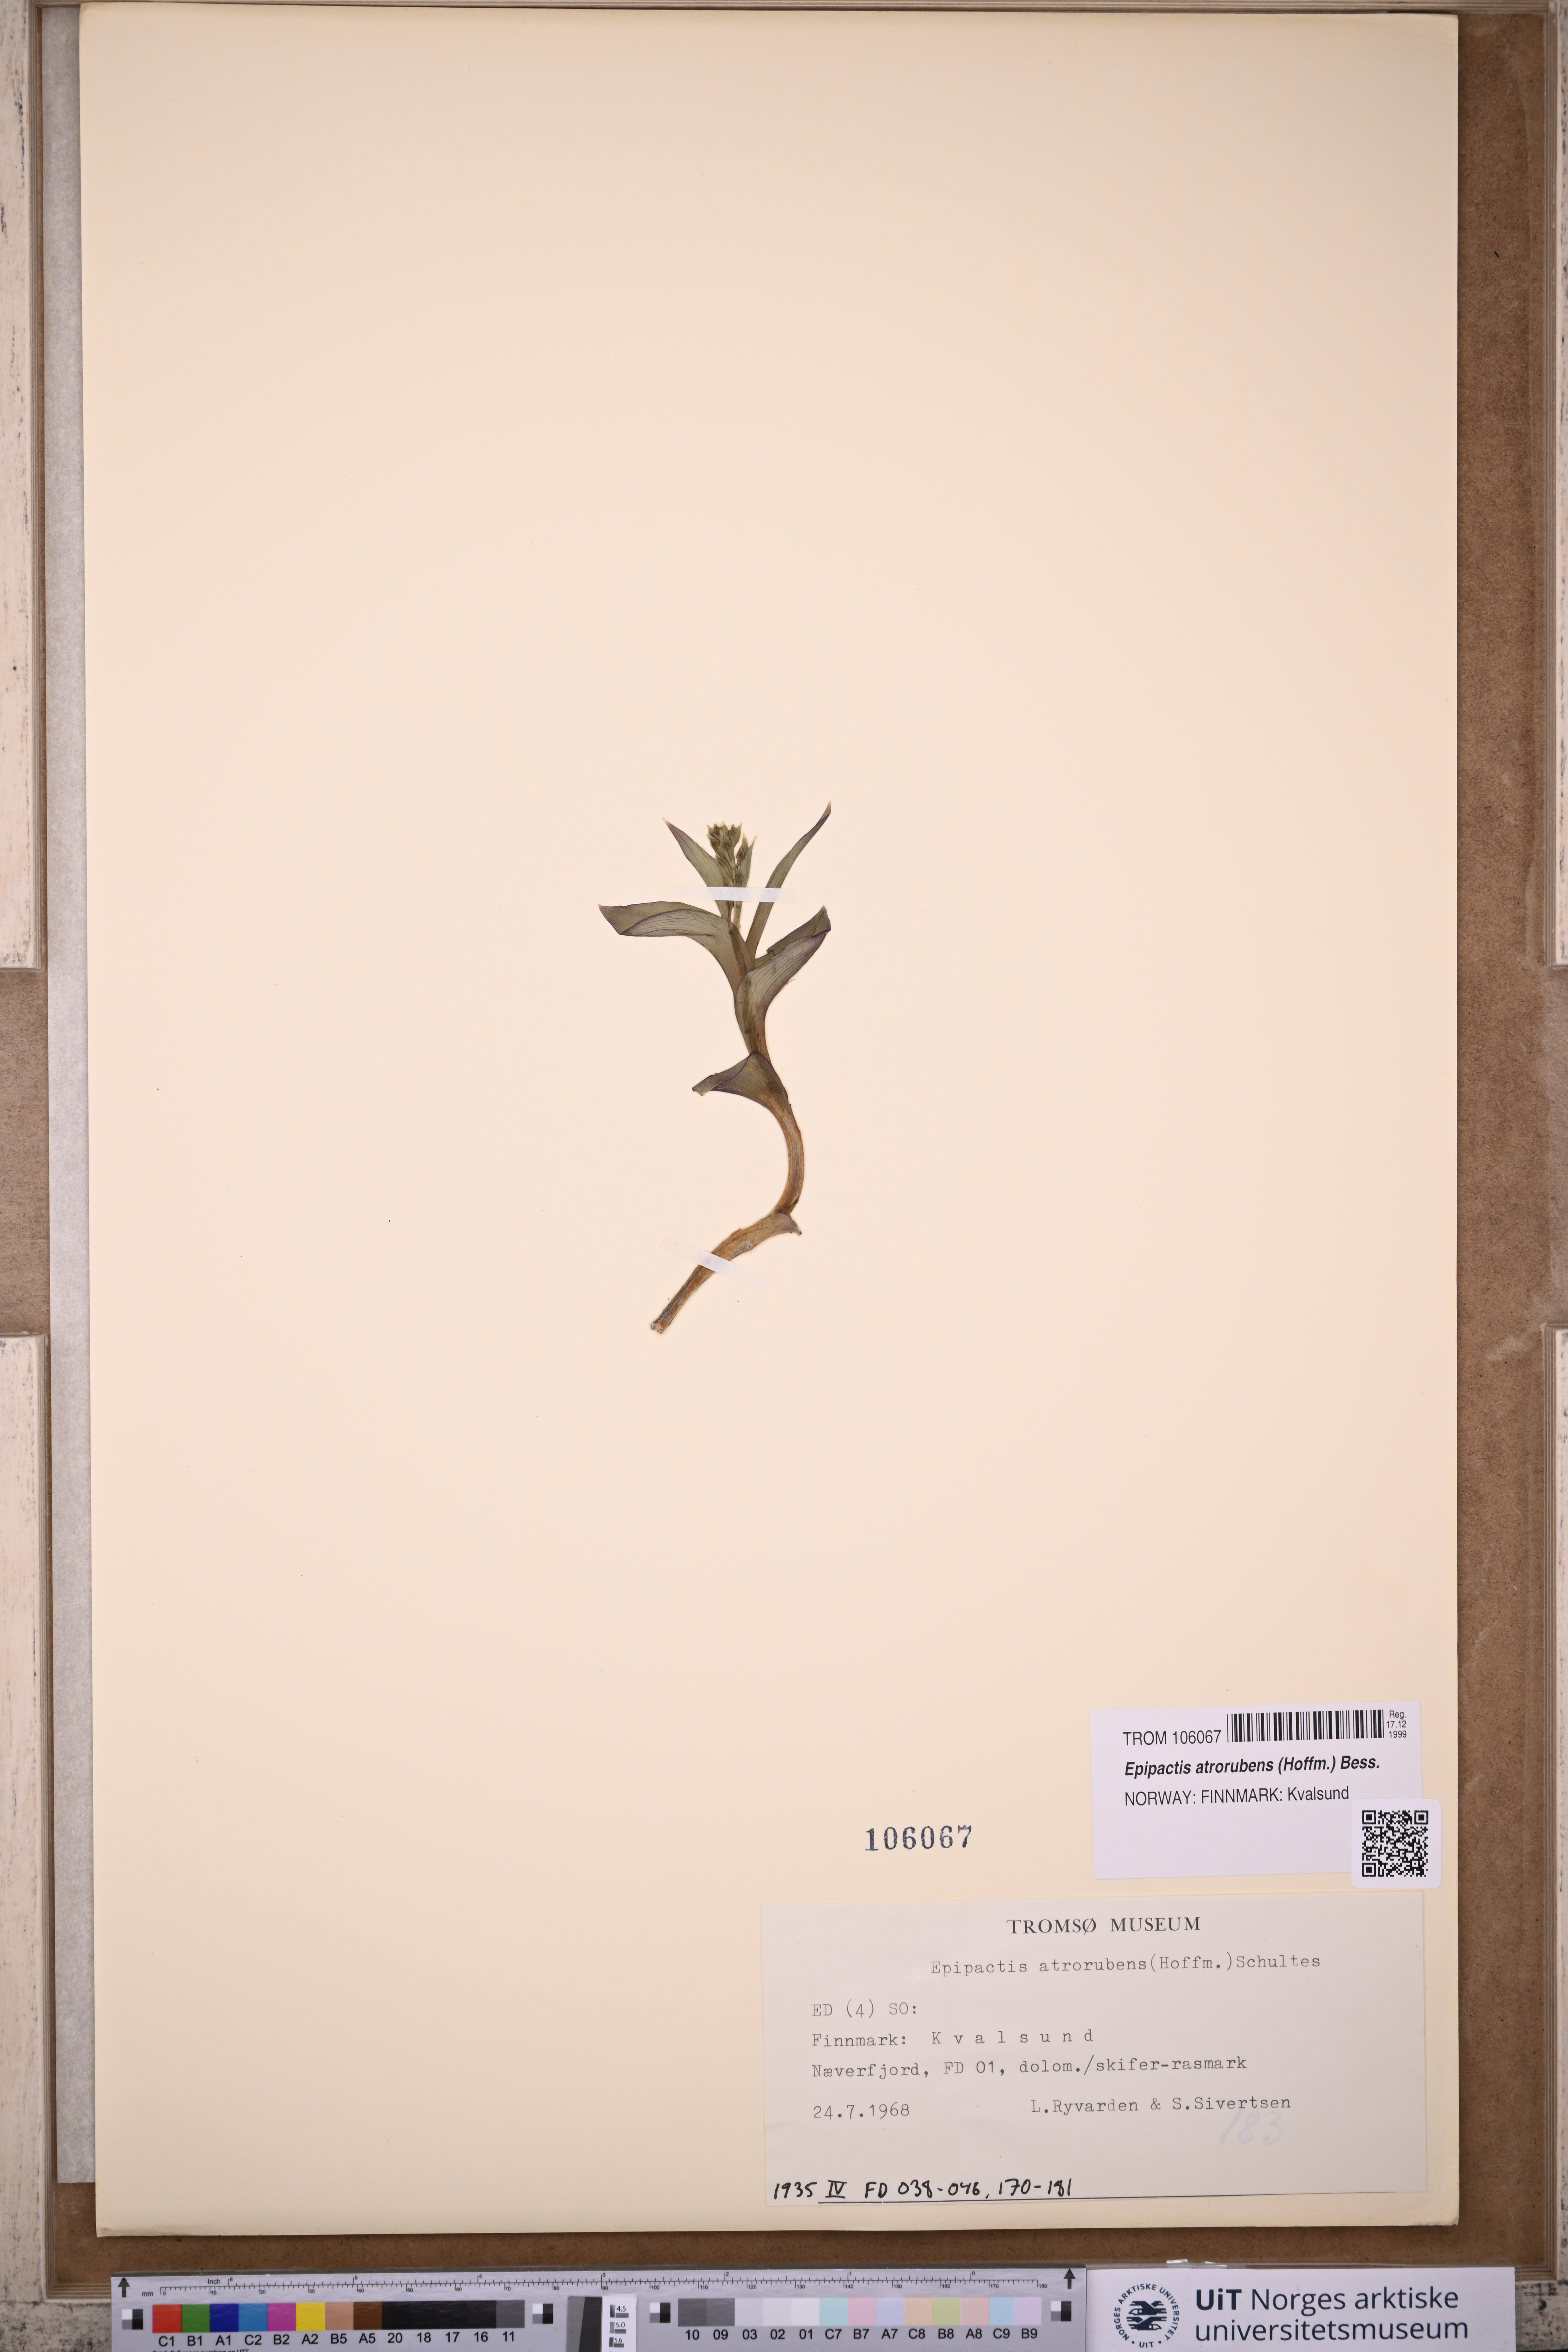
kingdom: Plantae
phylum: Tracheophyta
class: Liliopsida
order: Asparagales
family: Orchidaceae
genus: Epipactis
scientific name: Epipactis atrorubens
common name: Dark-red helleborine
